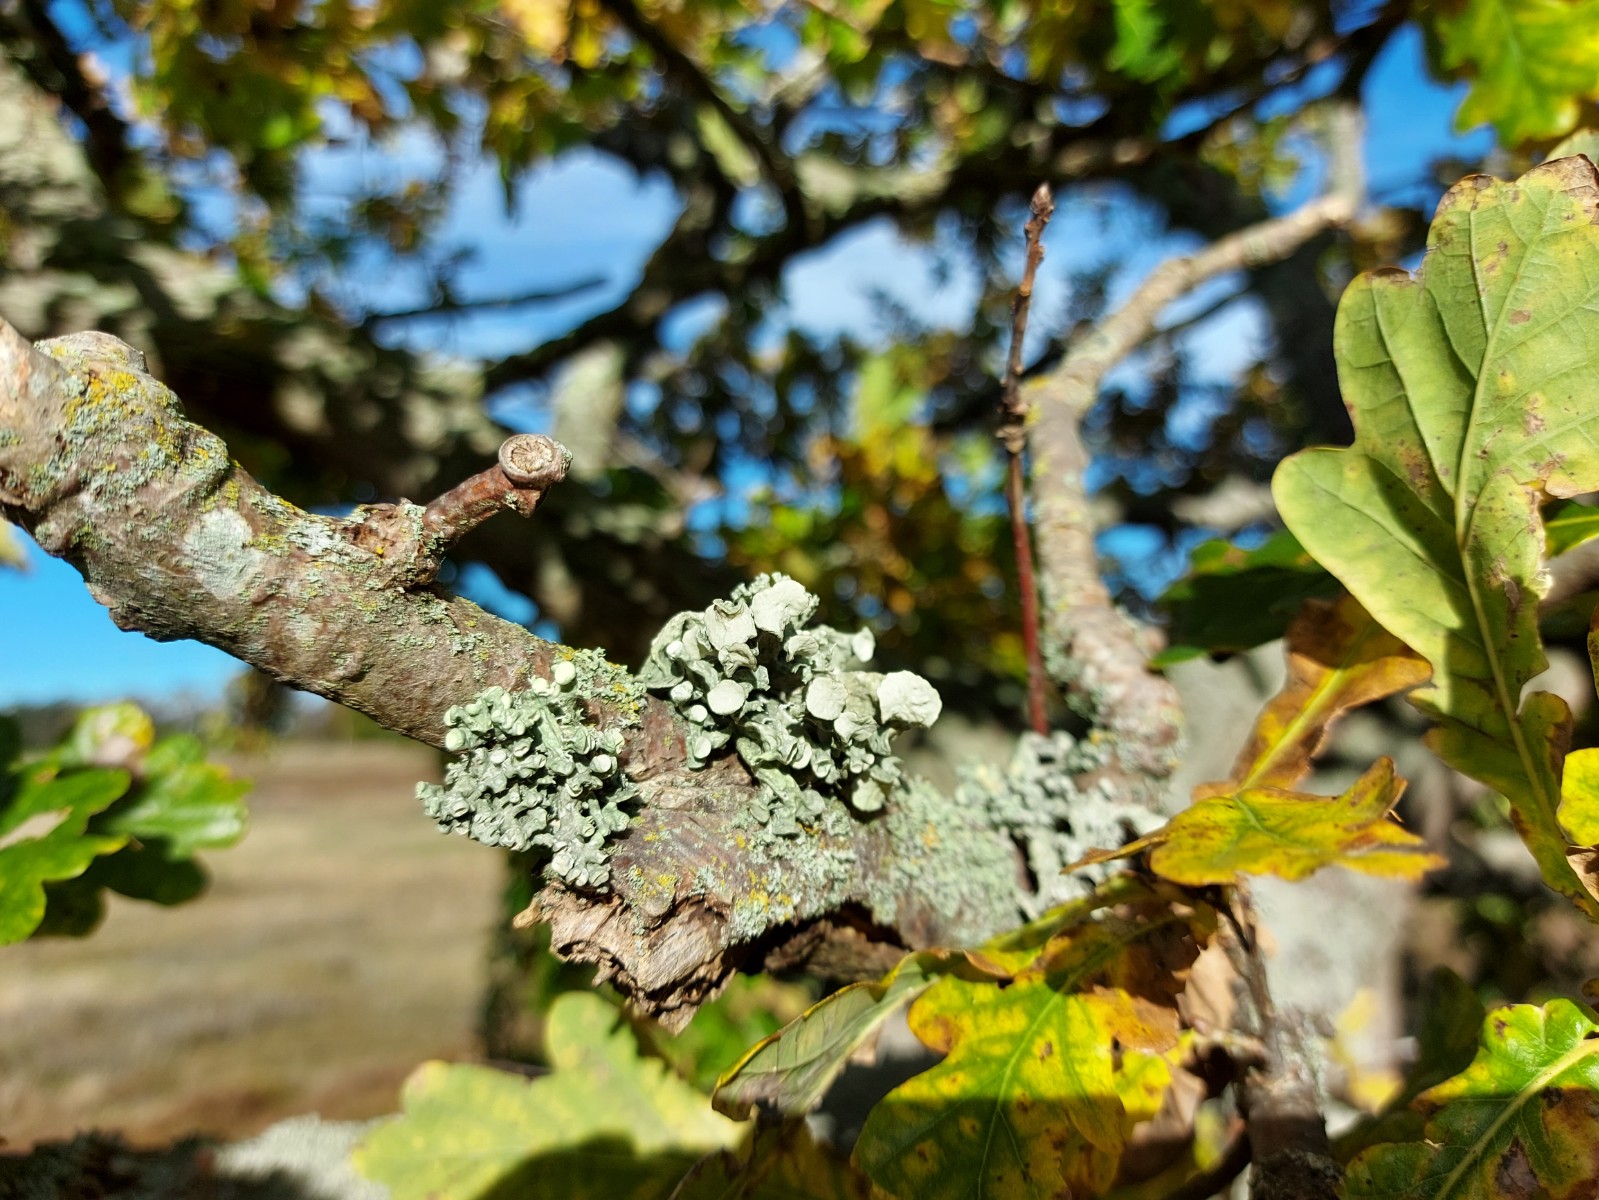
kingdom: Fungi
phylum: Ascomycota
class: Lecanoromycetes
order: Lecanorales
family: Ramalinaceae
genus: Ramalina
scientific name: Ramalina fastigiata
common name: tue-grenlav
